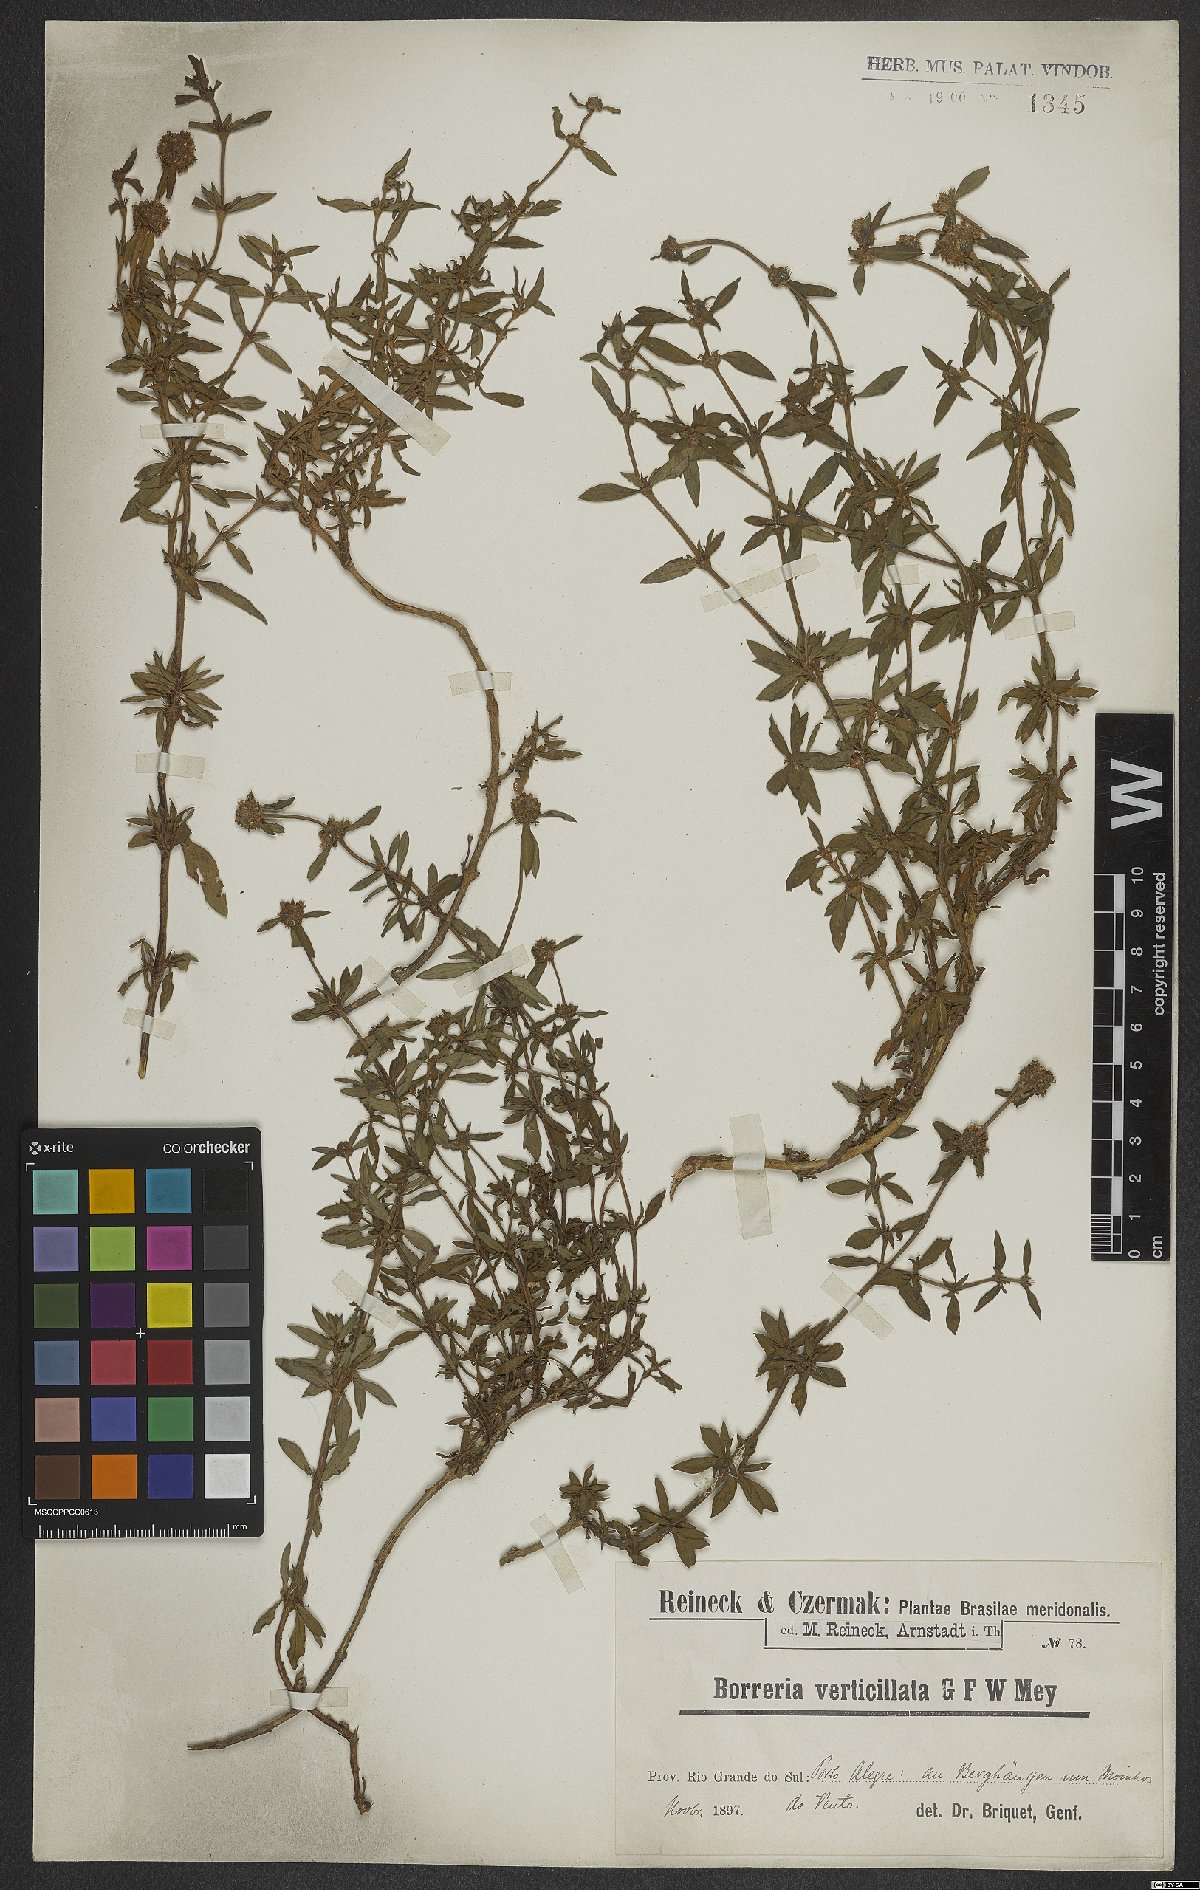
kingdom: Plantae
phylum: Tracheophyta
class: Magnoliopsida
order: Gentianales
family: Rubiaceae
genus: Spermacoce
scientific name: Spermacoce verticillata
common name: Shrubby false buttonweed
